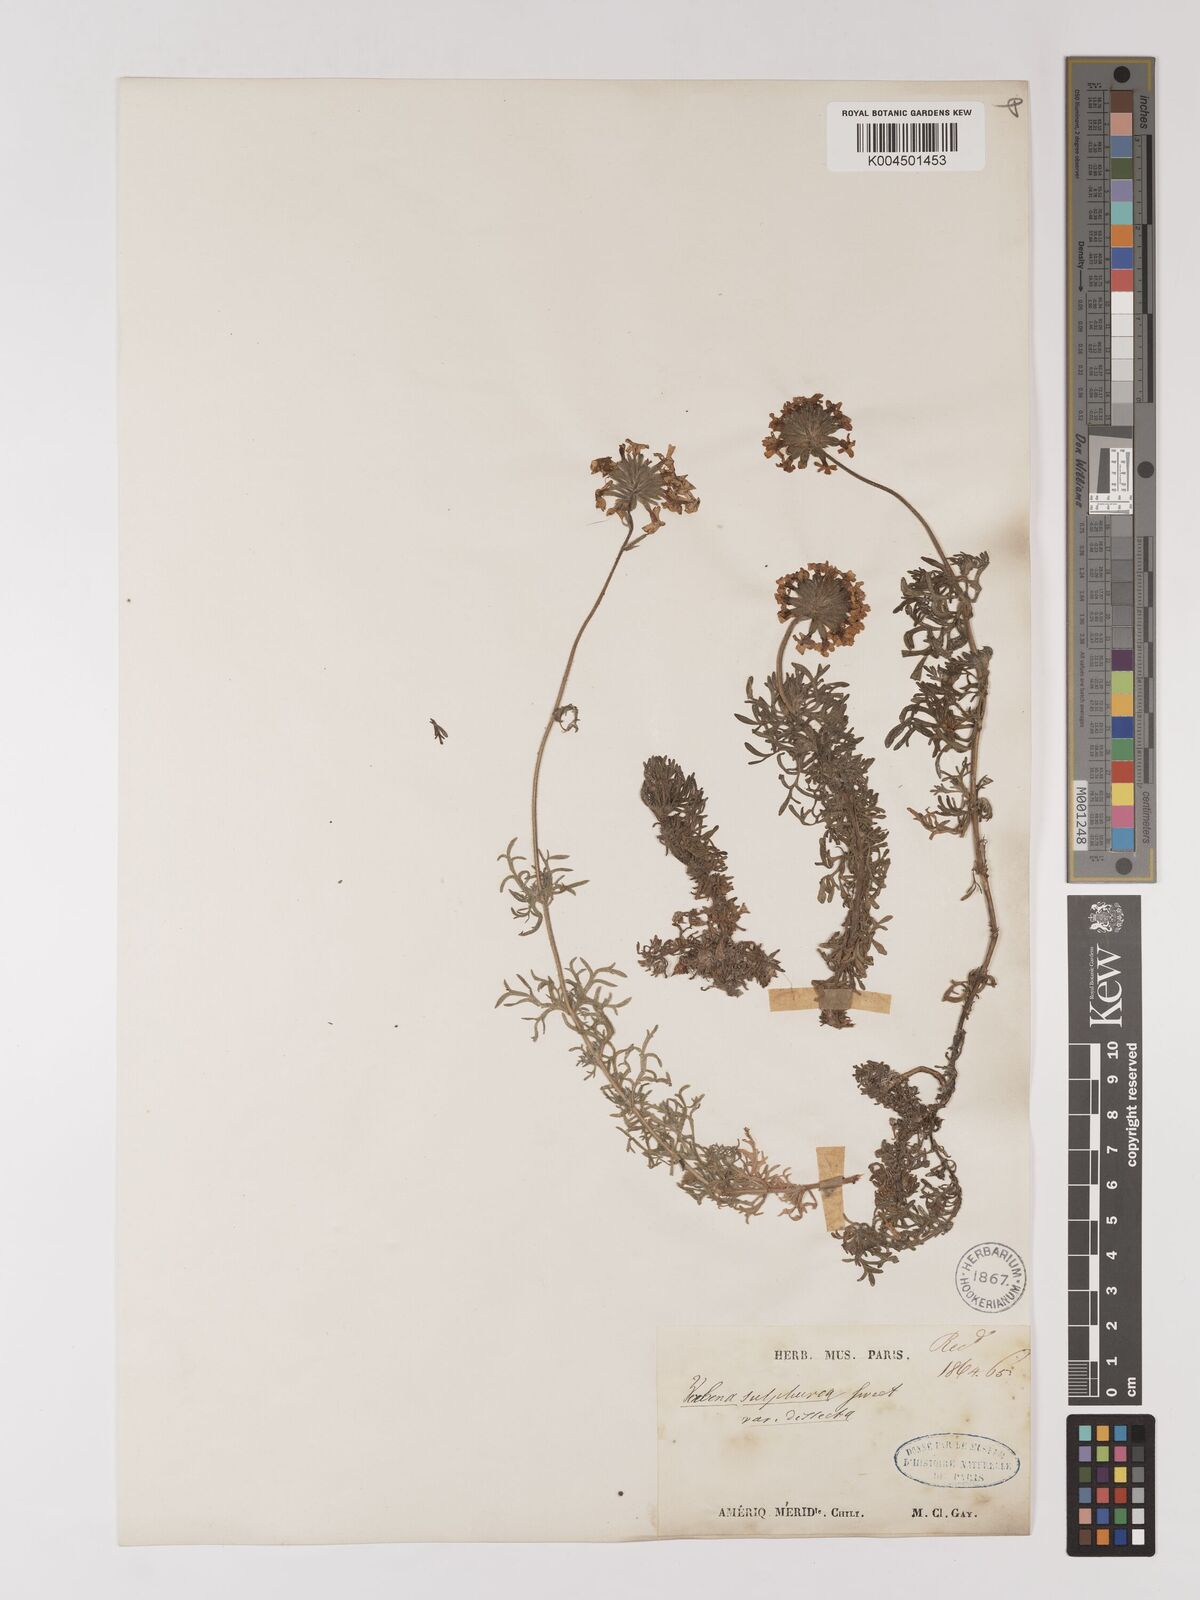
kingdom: Plantae
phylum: Tracheophyta
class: Magnoliopsida
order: Lamiales
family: Verbenaceae
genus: Verbena
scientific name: Verbena sulphurea
